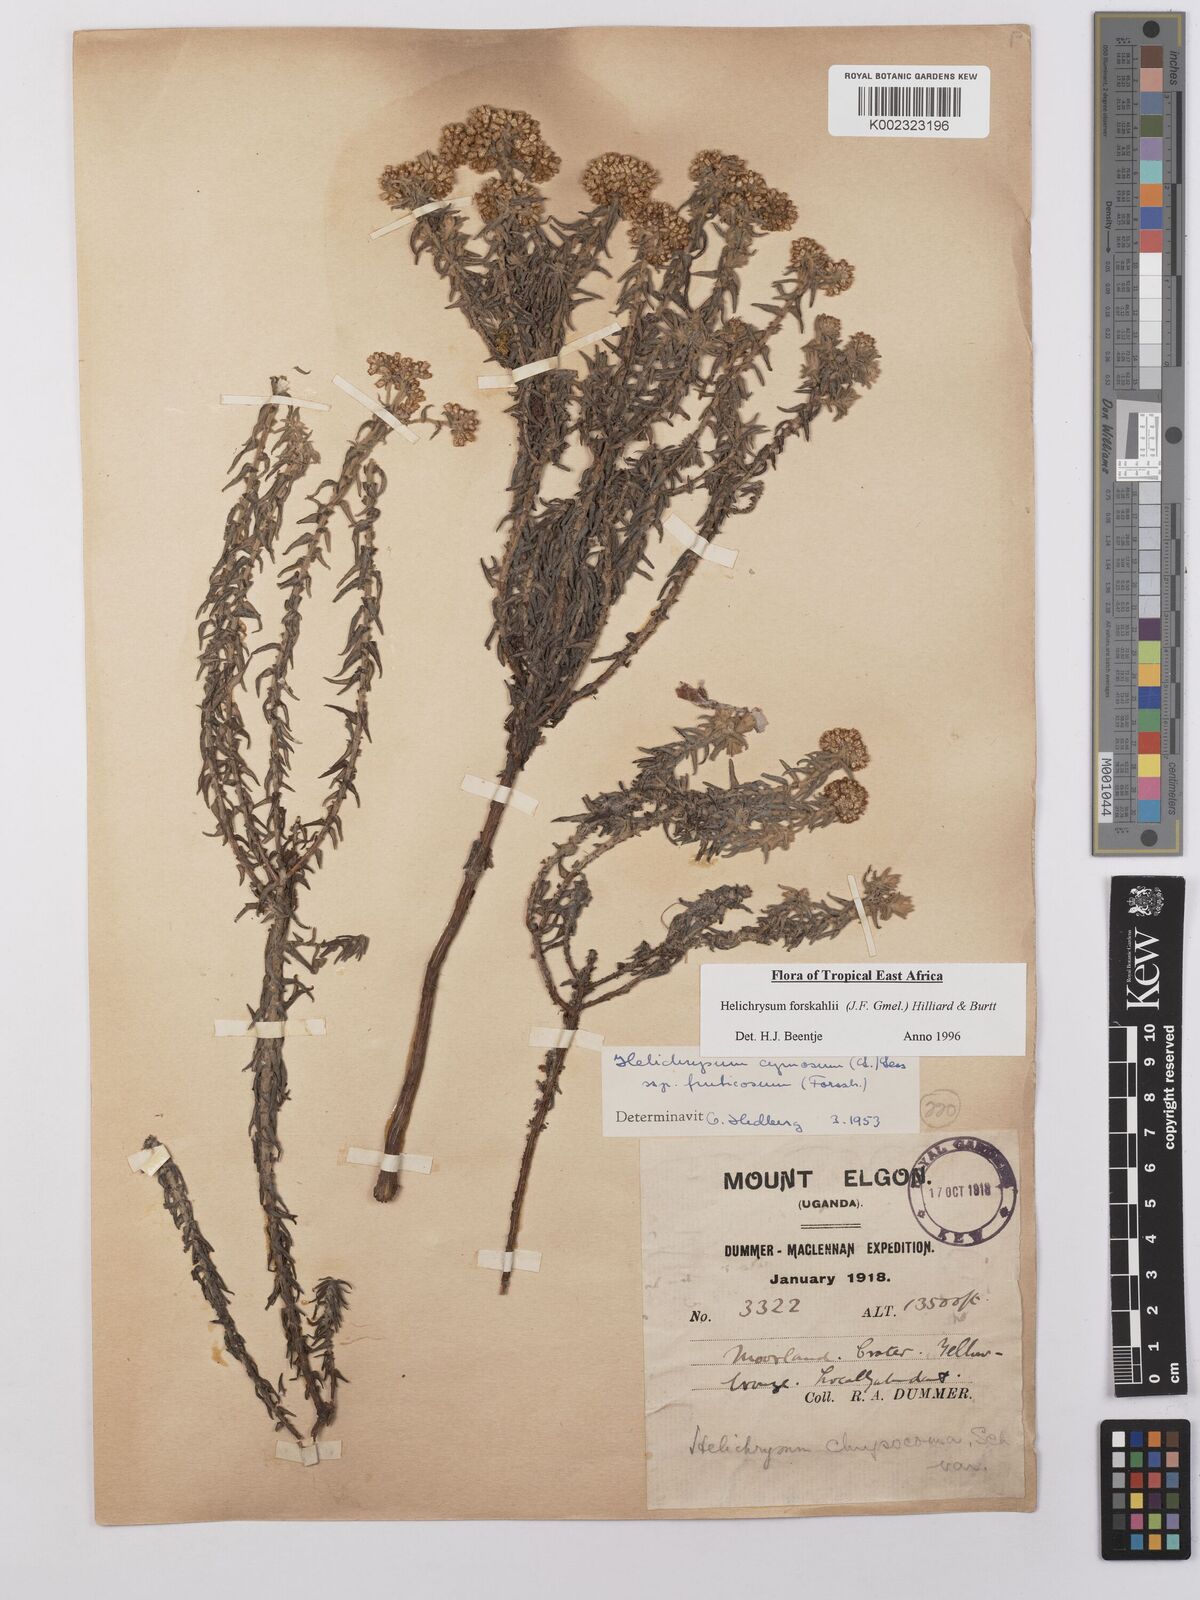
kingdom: Plantae
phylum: Tracheophyta
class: Magnoliopsida
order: Asterales
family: Asteraceae
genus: Helichrysum
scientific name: Helichrysum forskahlii
